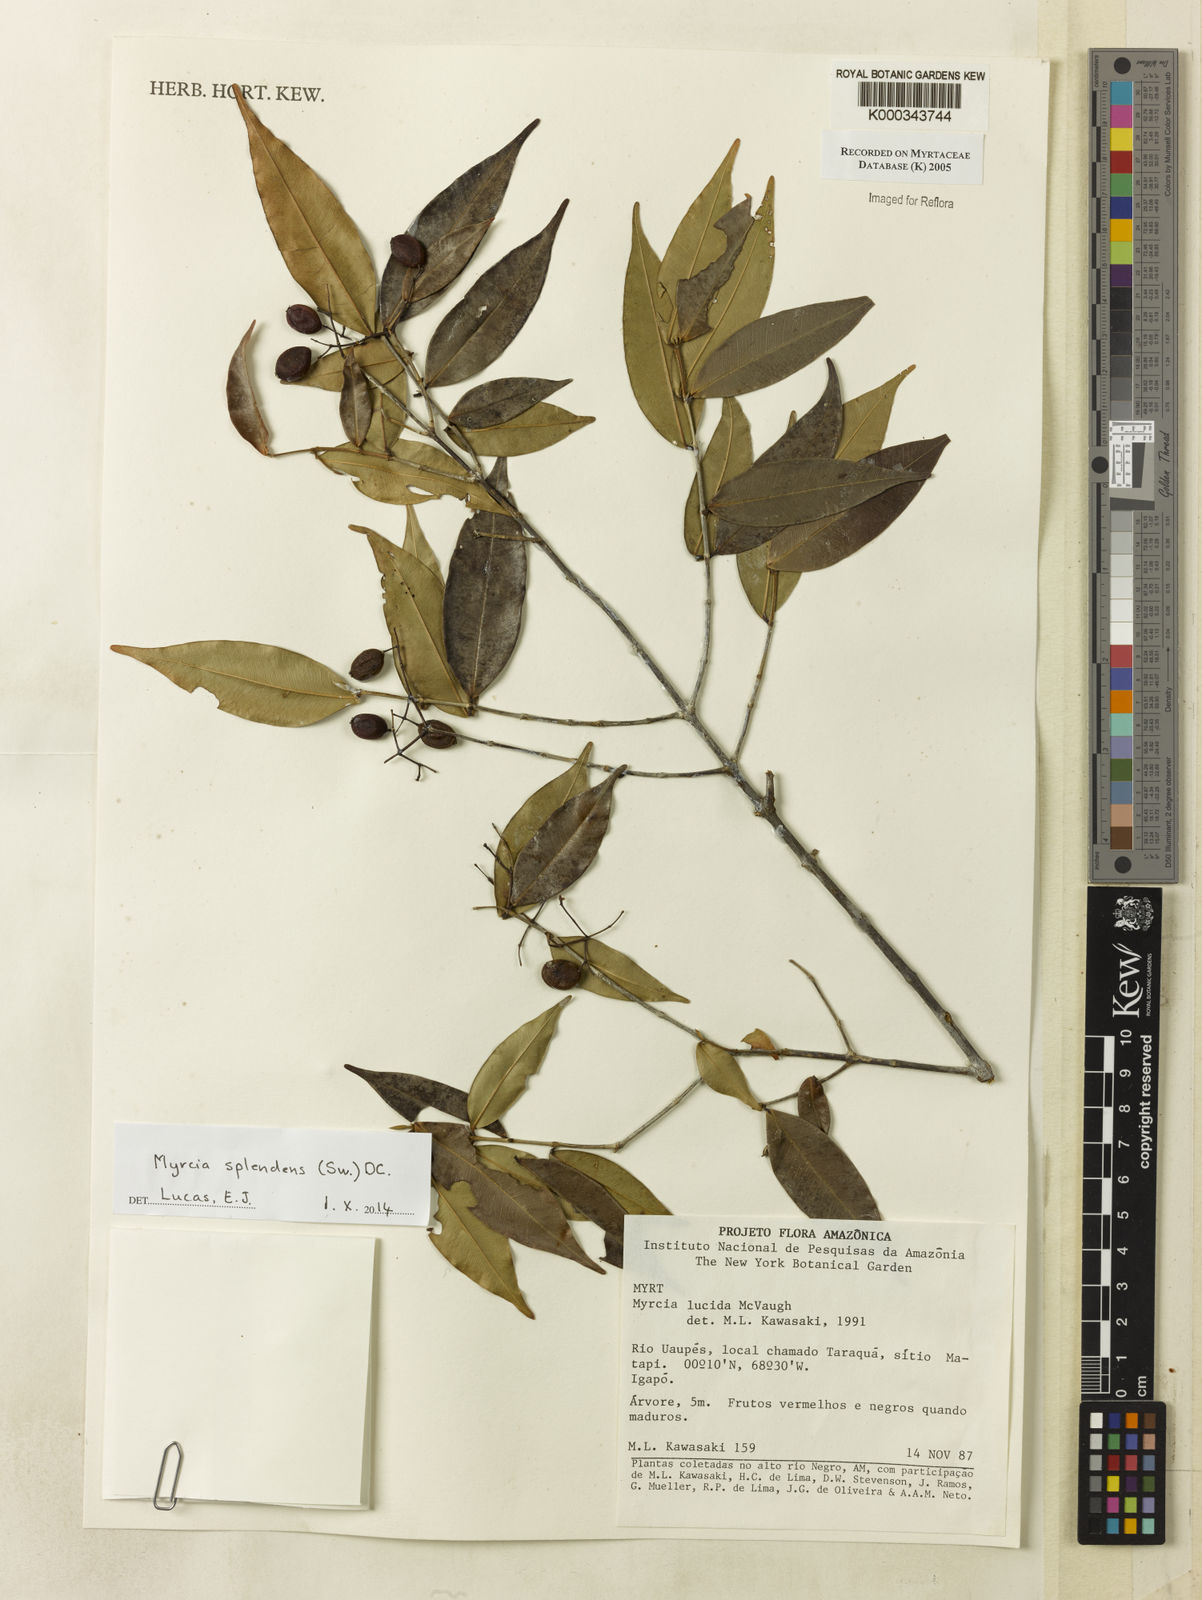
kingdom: Plantae
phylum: Tracheophyta
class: Magnoliopsida
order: Myrtales
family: Myrtaceae
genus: Myrcia
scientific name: Myrcia inaequiloba
